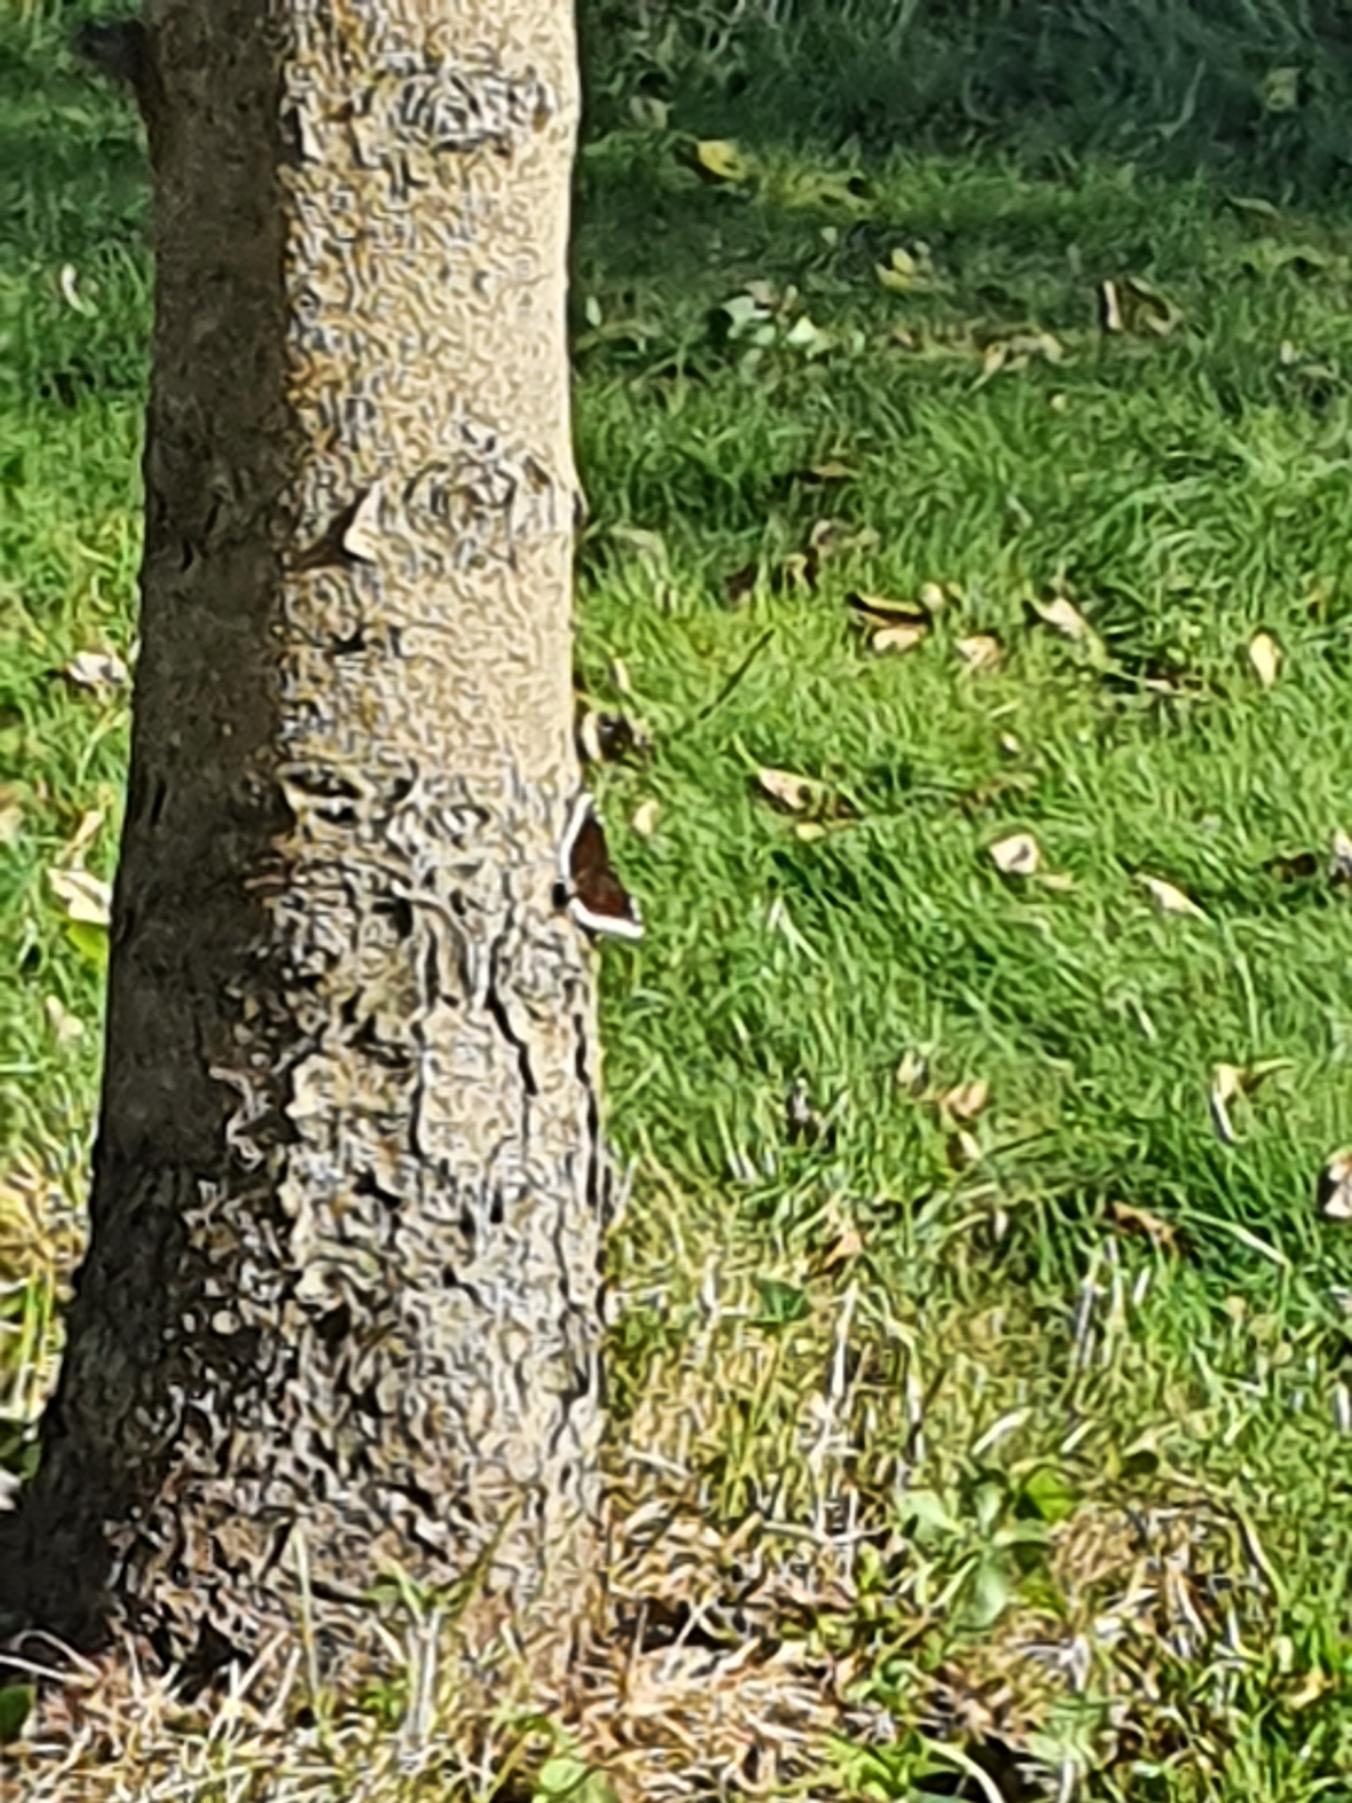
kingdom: Animalia
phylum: Arthropoda
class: Insecta
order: Lepidoptera
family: Nymphalidae
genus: Nymphalis
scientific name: Nymphalis antiopa
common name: Sørgekåbe
